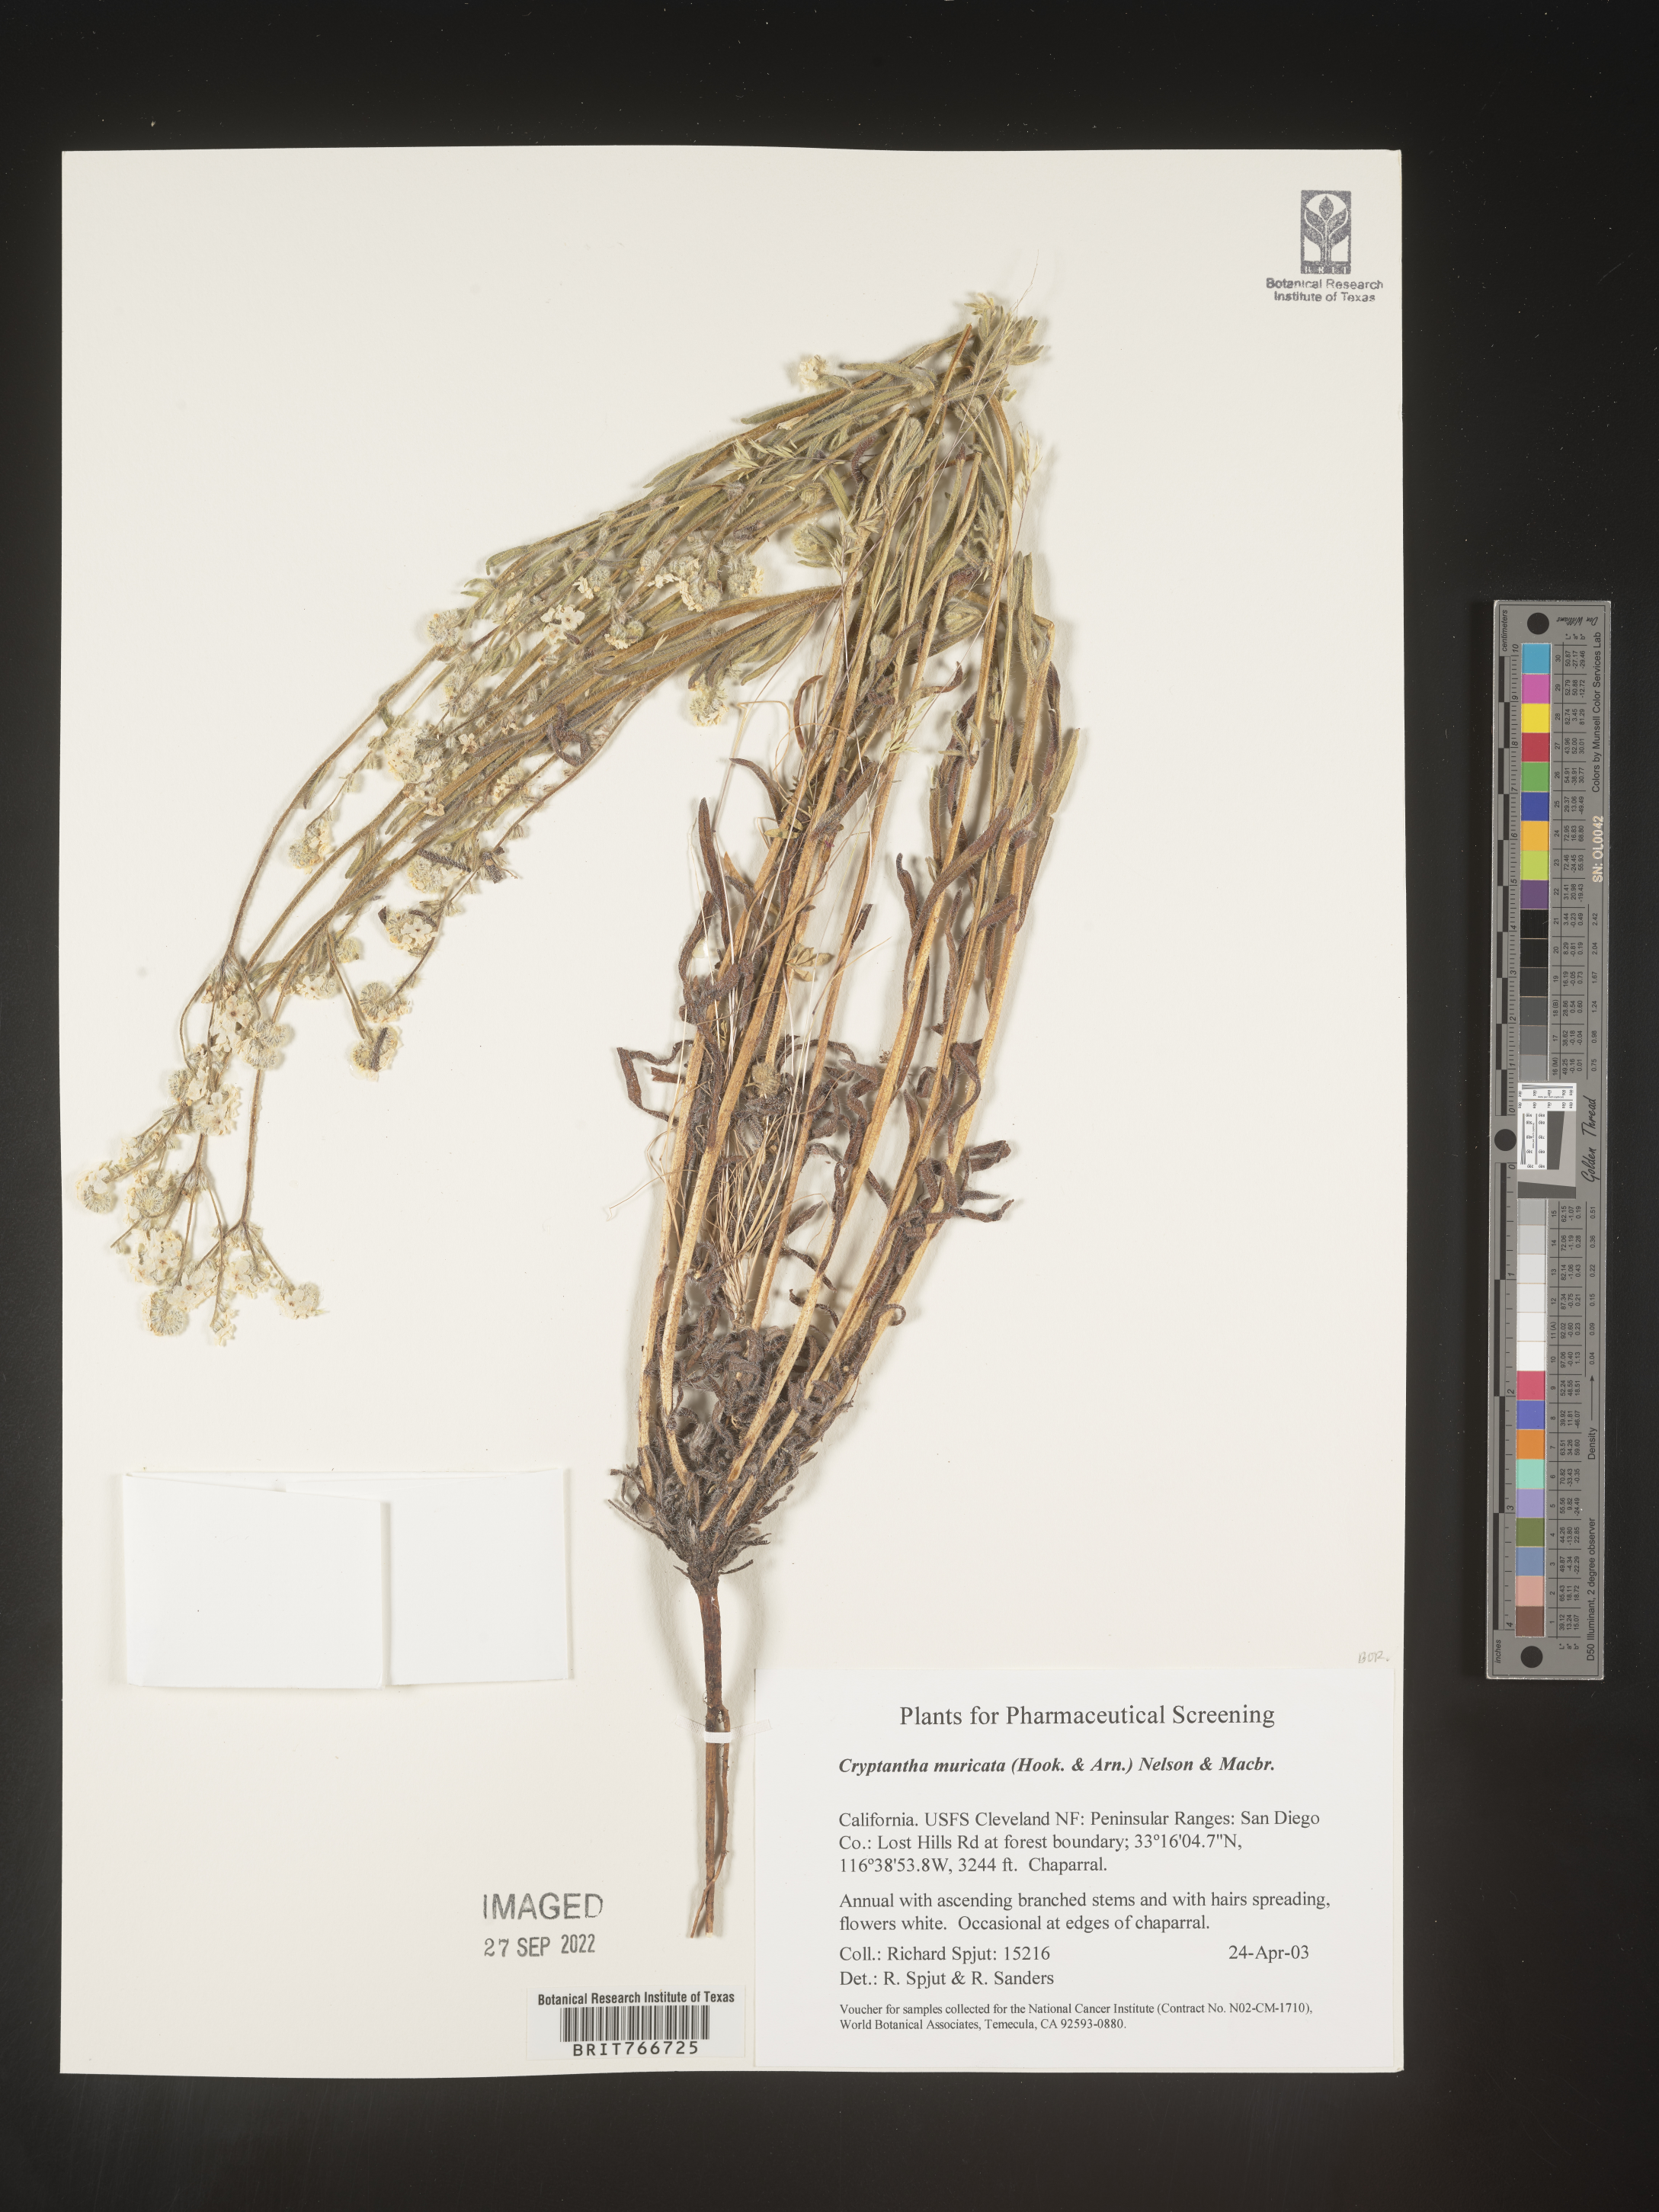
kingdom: Plantae
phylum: Tracheophyta
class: Magnoliopsida
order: Boraginales
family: Boraginaceae
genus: Cryptantha
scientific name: Cryptantha muricata
